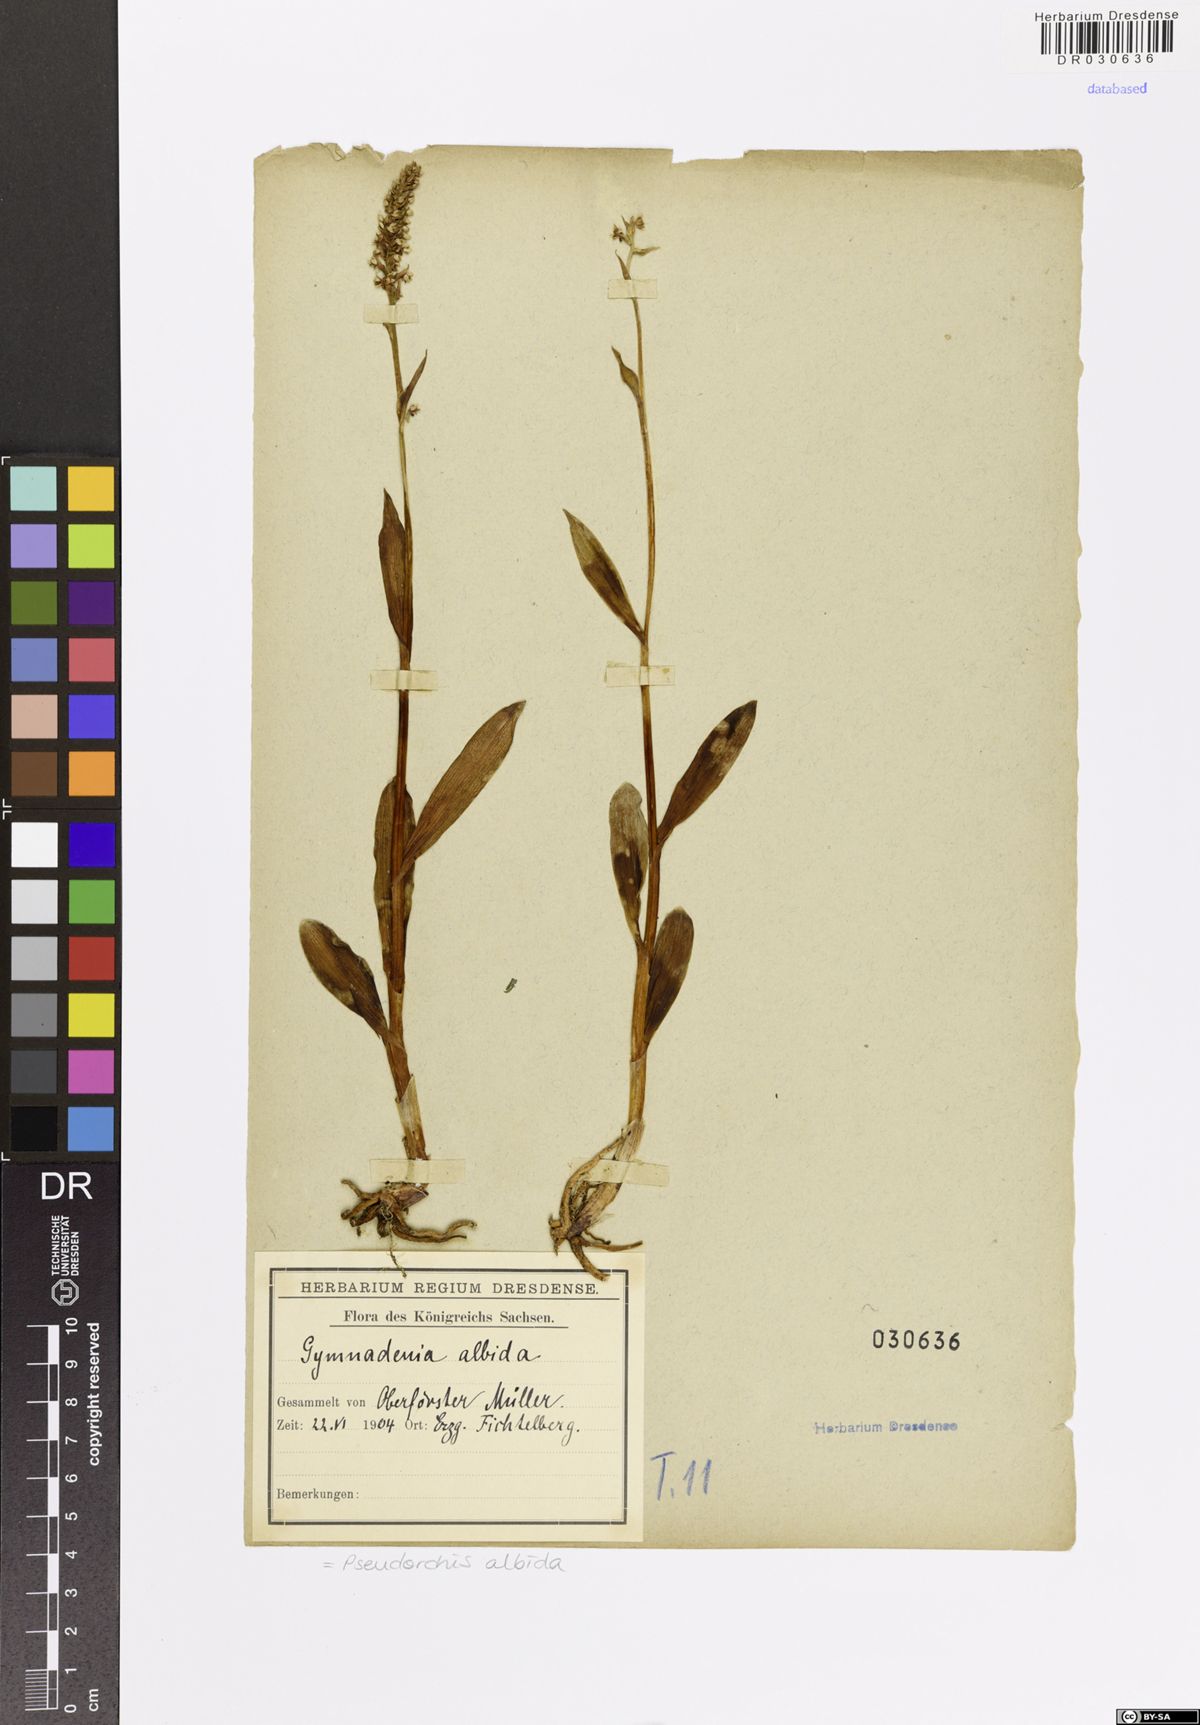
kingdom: Plantae
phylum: Tracheophyta
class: Liliopsida
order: Asparagales
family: Orchidaceae
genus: Pseudorchis
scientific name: Pseudorchis albida
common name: Small-white orchid
